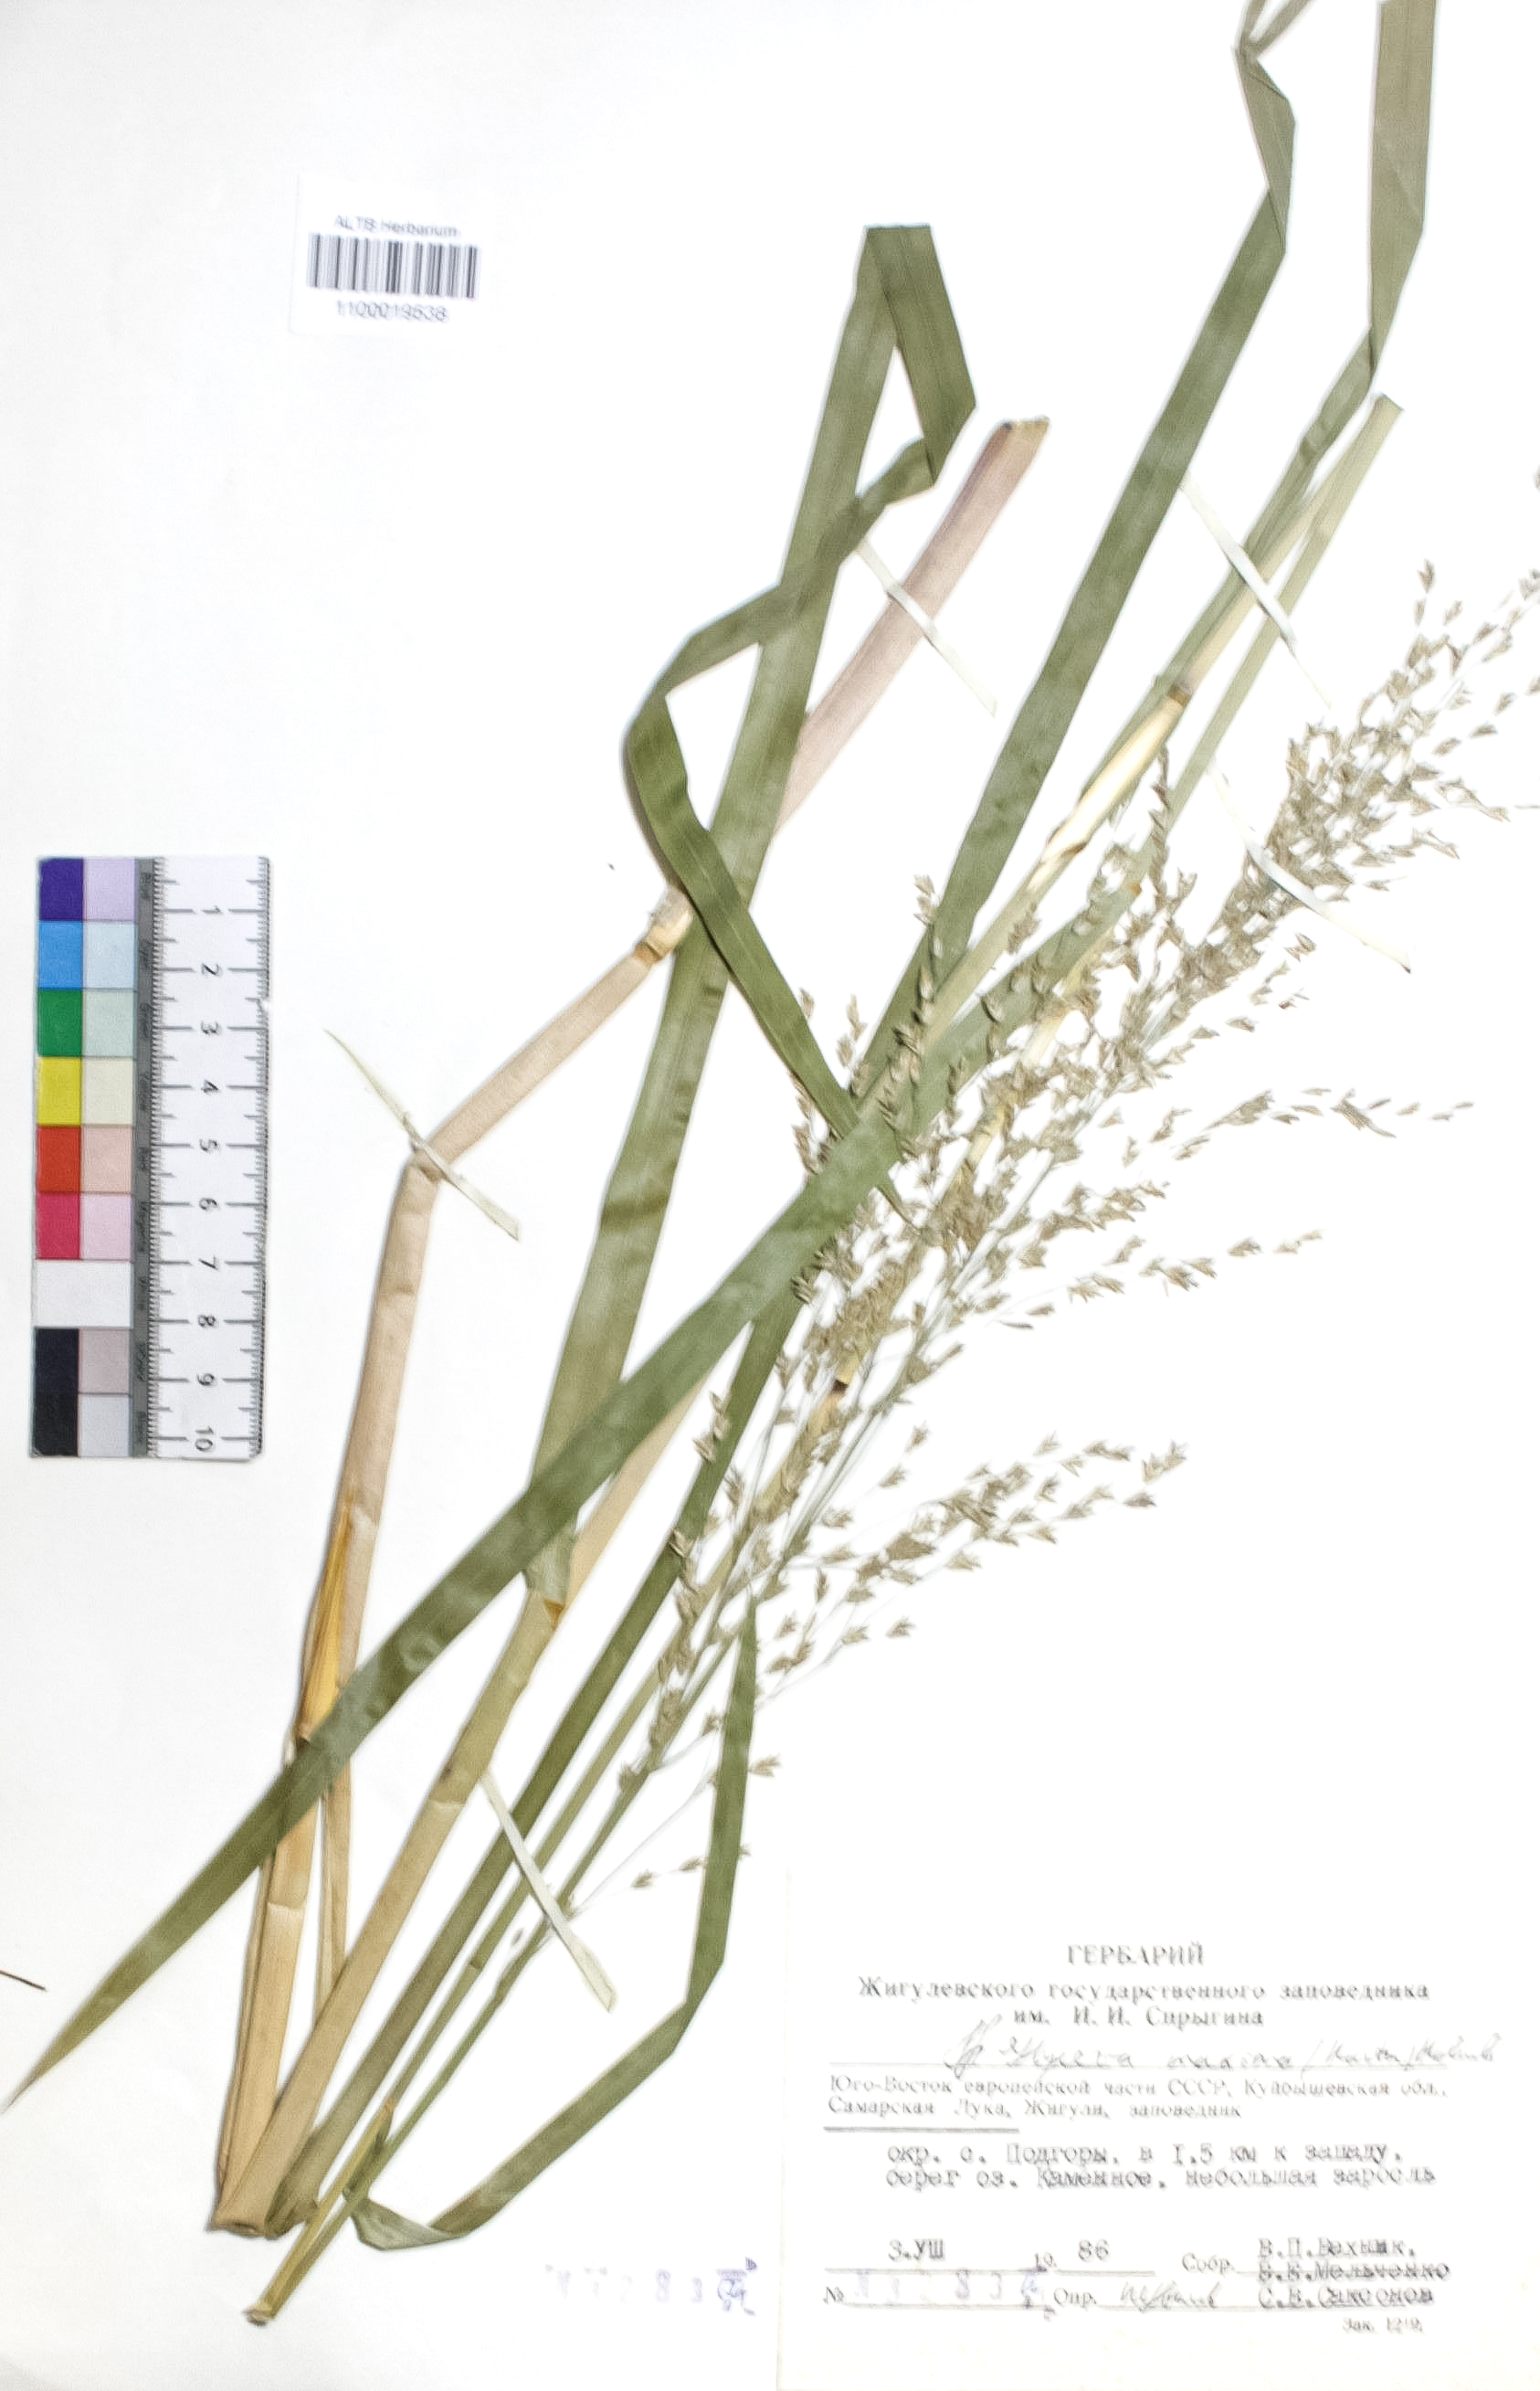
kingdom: Plantae
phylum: Tracheophyta
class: Liliopsida
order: Poales
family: Poaceae
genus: Glyceria
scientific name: Glyceria maxima
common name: Reed mannagrass
